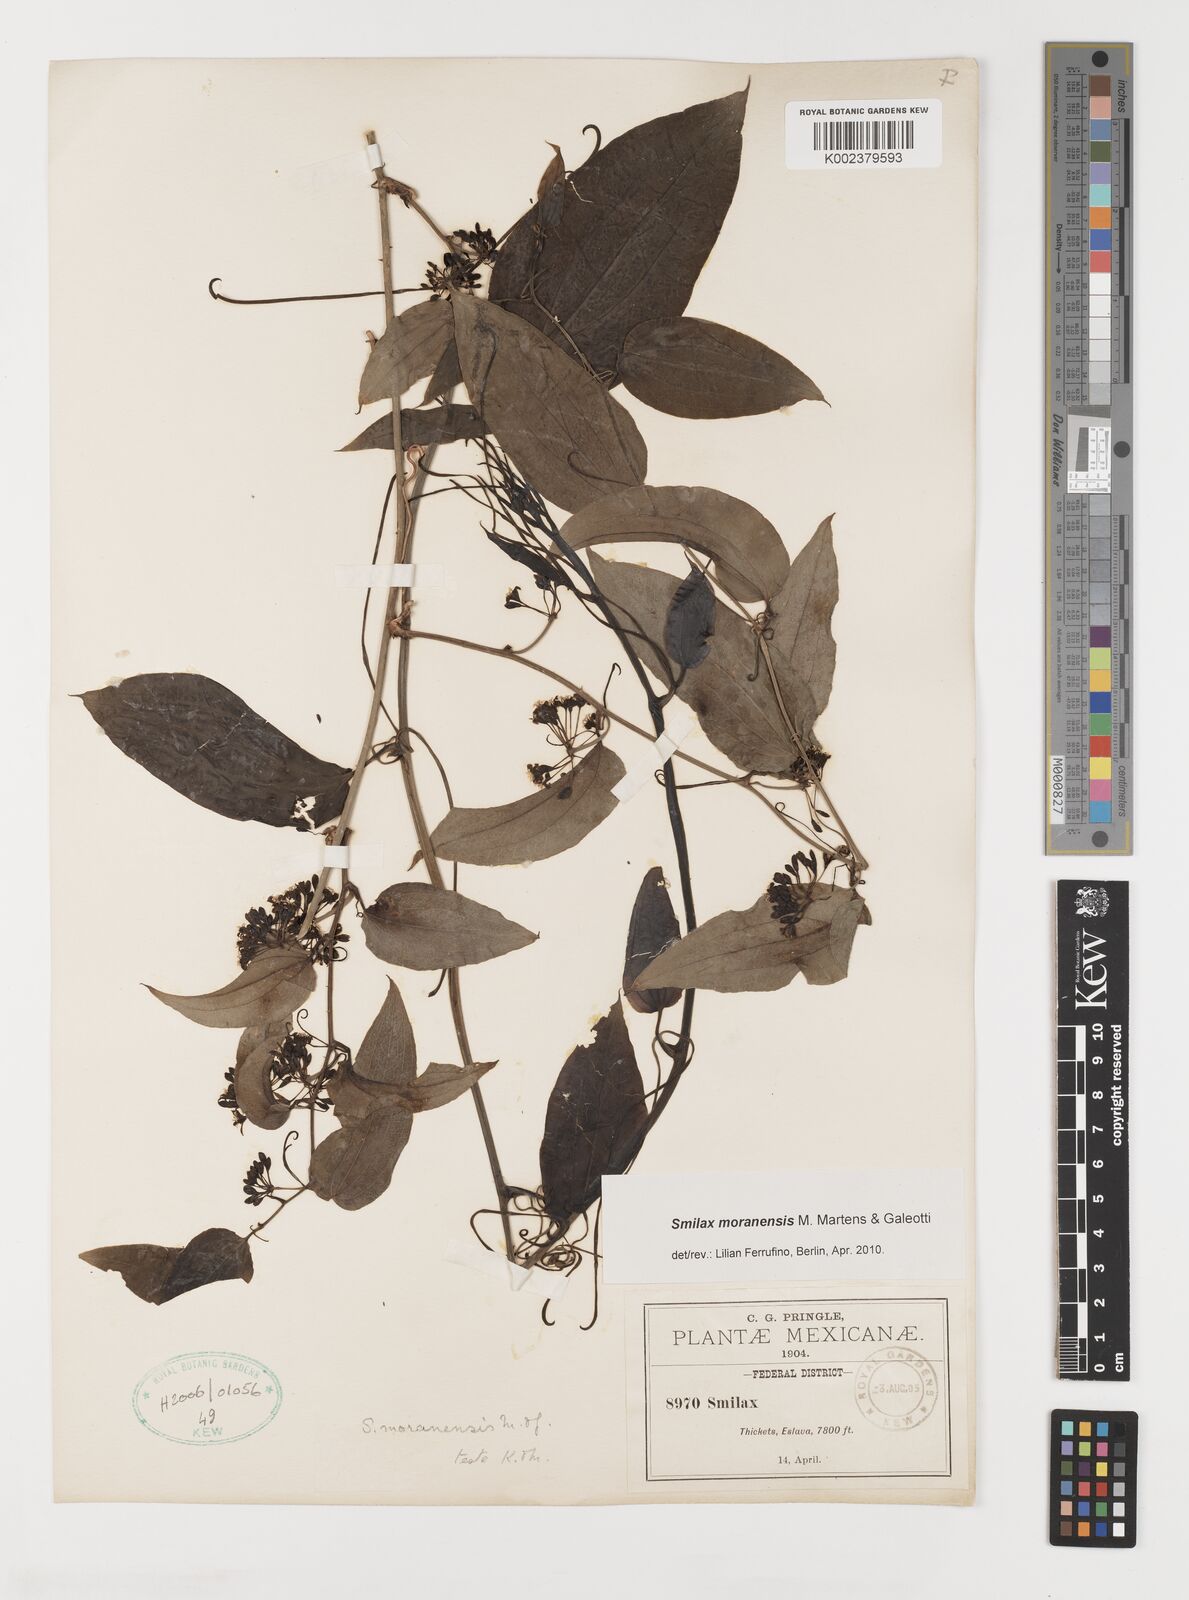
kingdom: Plantae
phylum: Tracheophyta
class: Liliopsida
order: Liliales
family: Smilacaceae
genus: Smilax
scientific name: Smilax moranensis
